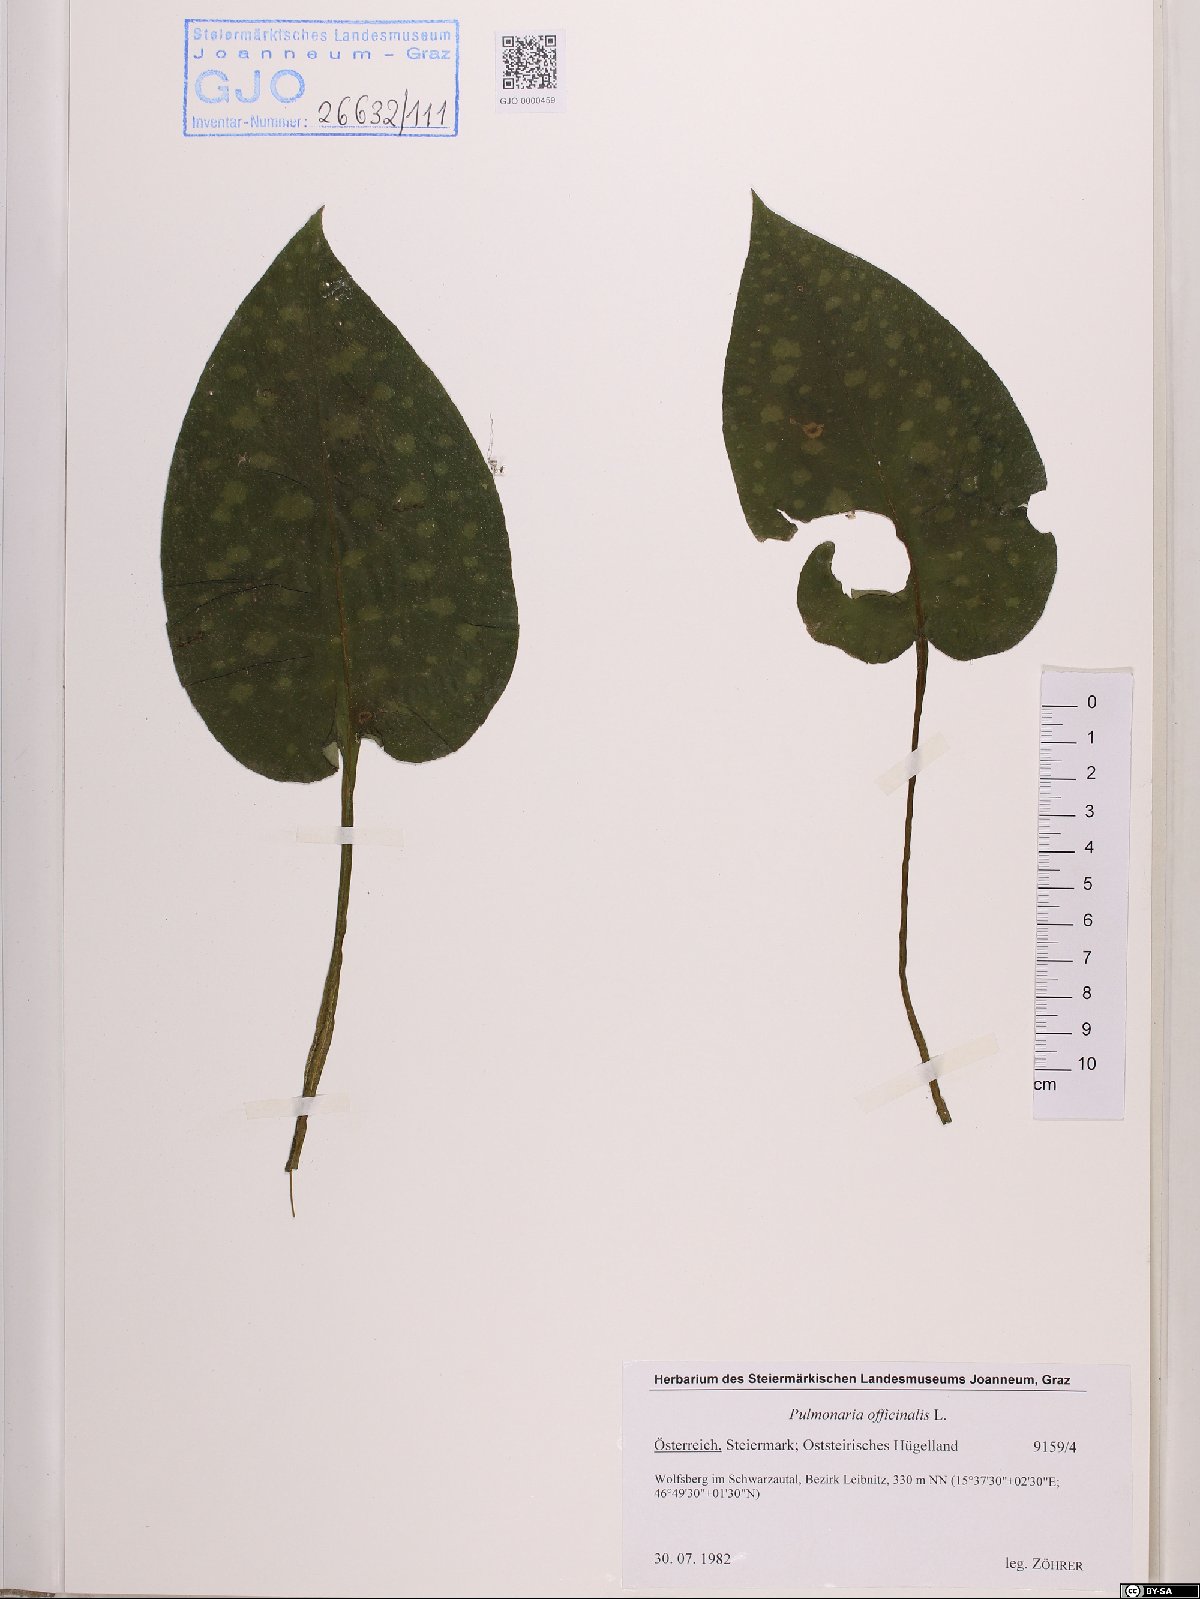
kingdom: Plantae
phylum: Tracheophyta
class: Magnoliopsida
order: Boraginales
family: Boraginaceae
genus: Pulmonaria
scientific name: Pulmonaria officinalis
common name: Lungwort
